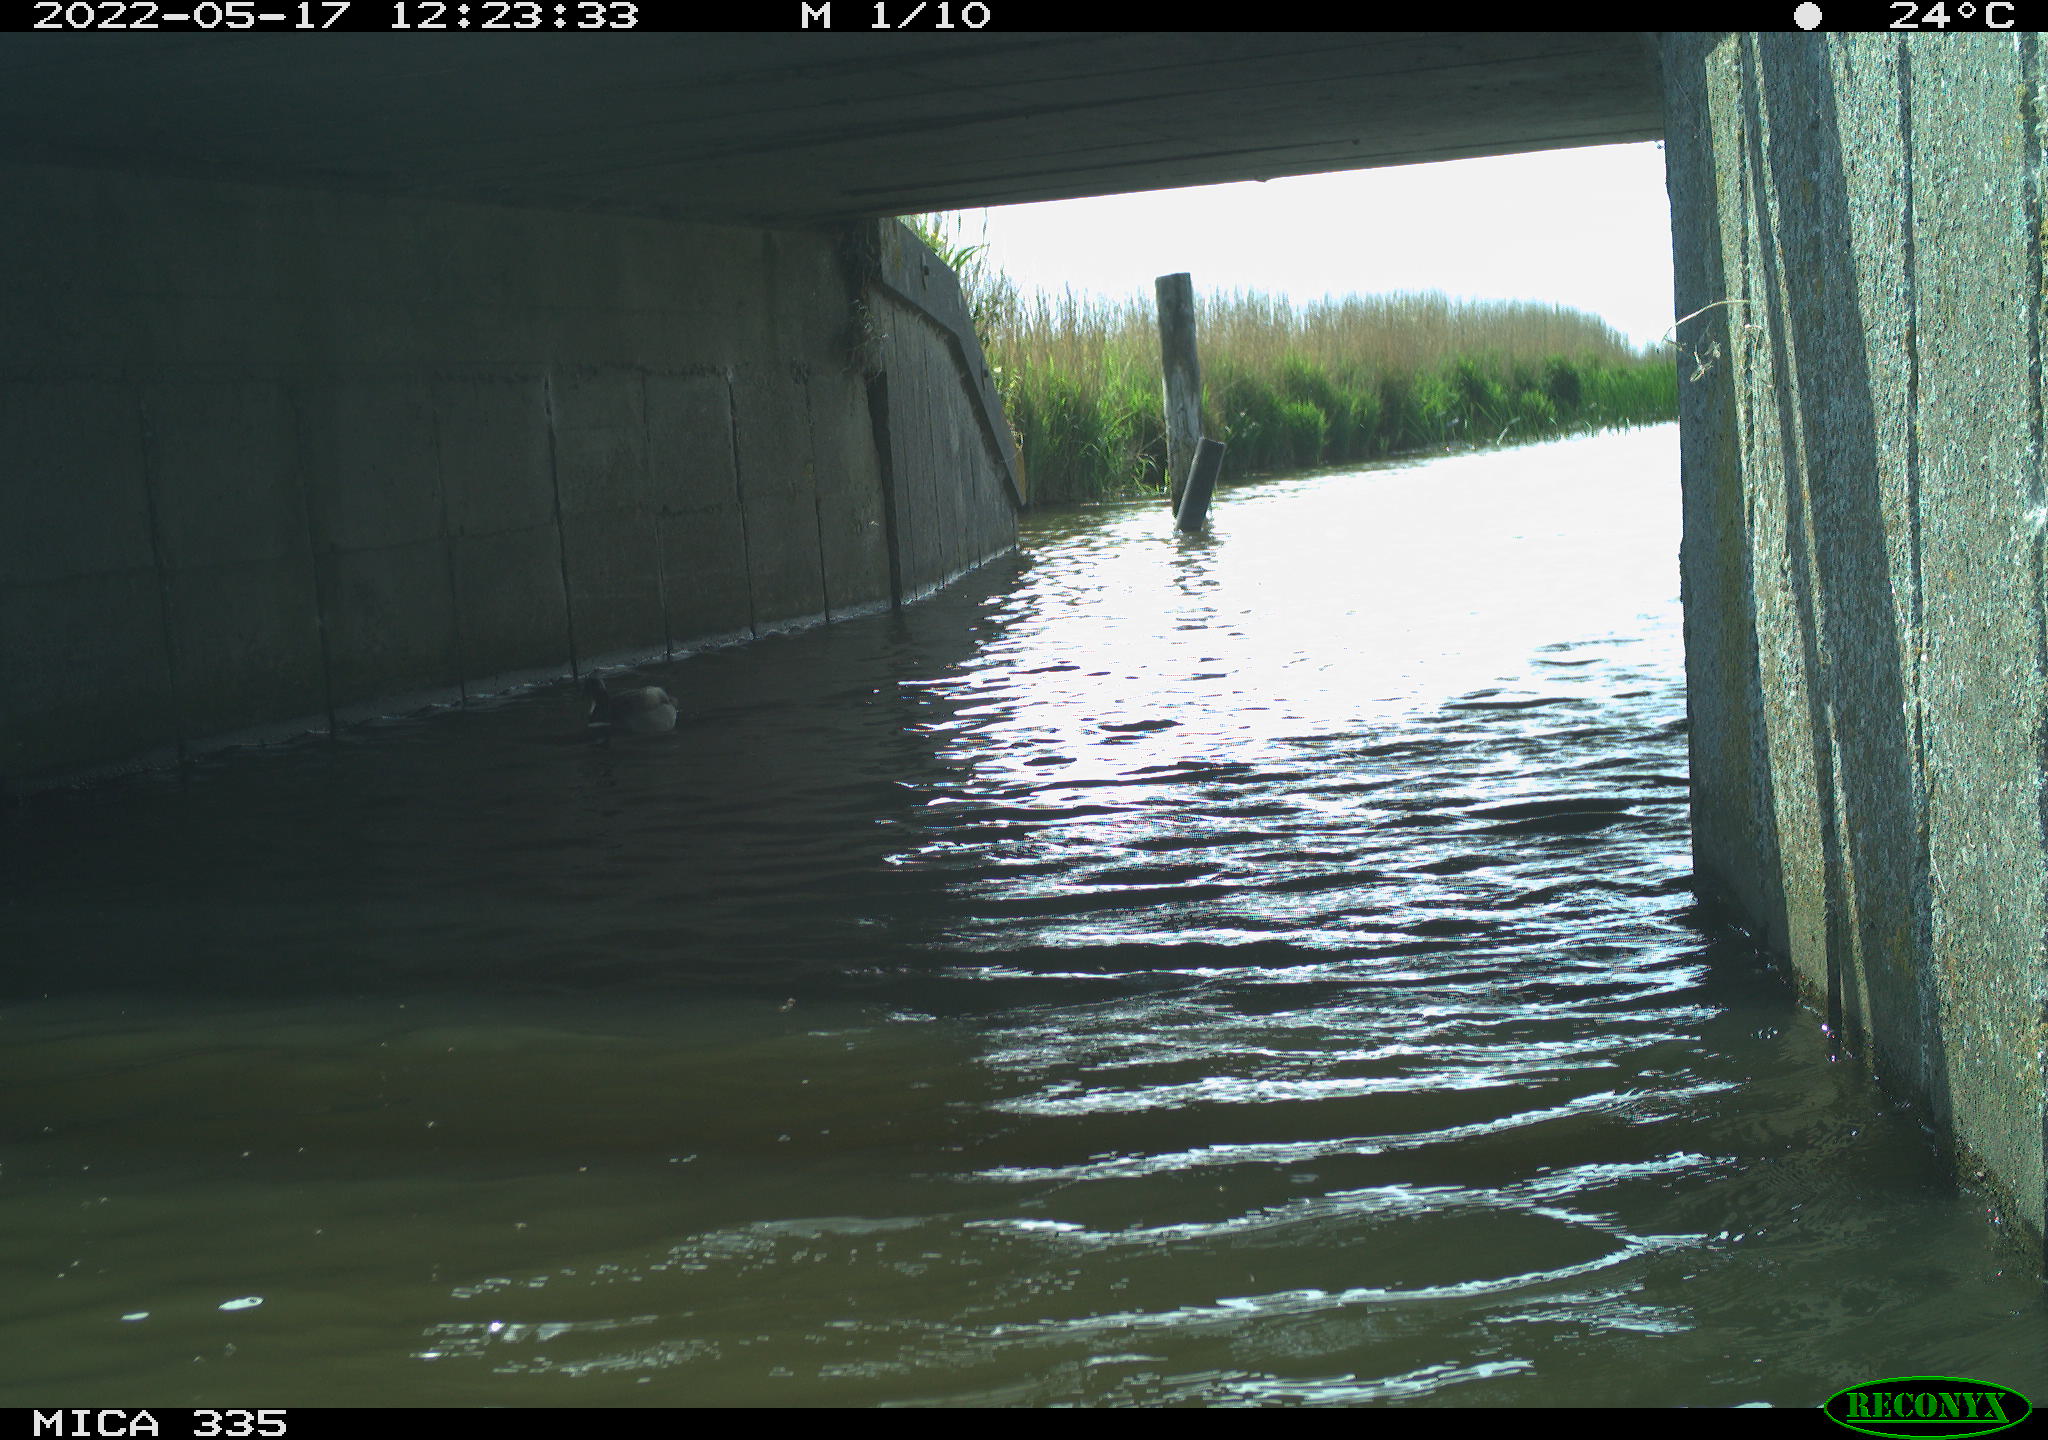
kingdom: Animalia
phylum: Chordata
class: Aves
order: Anseriformes
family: Anatidae
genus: Anas
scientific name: Anas platyrhynchos
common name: Mallard
